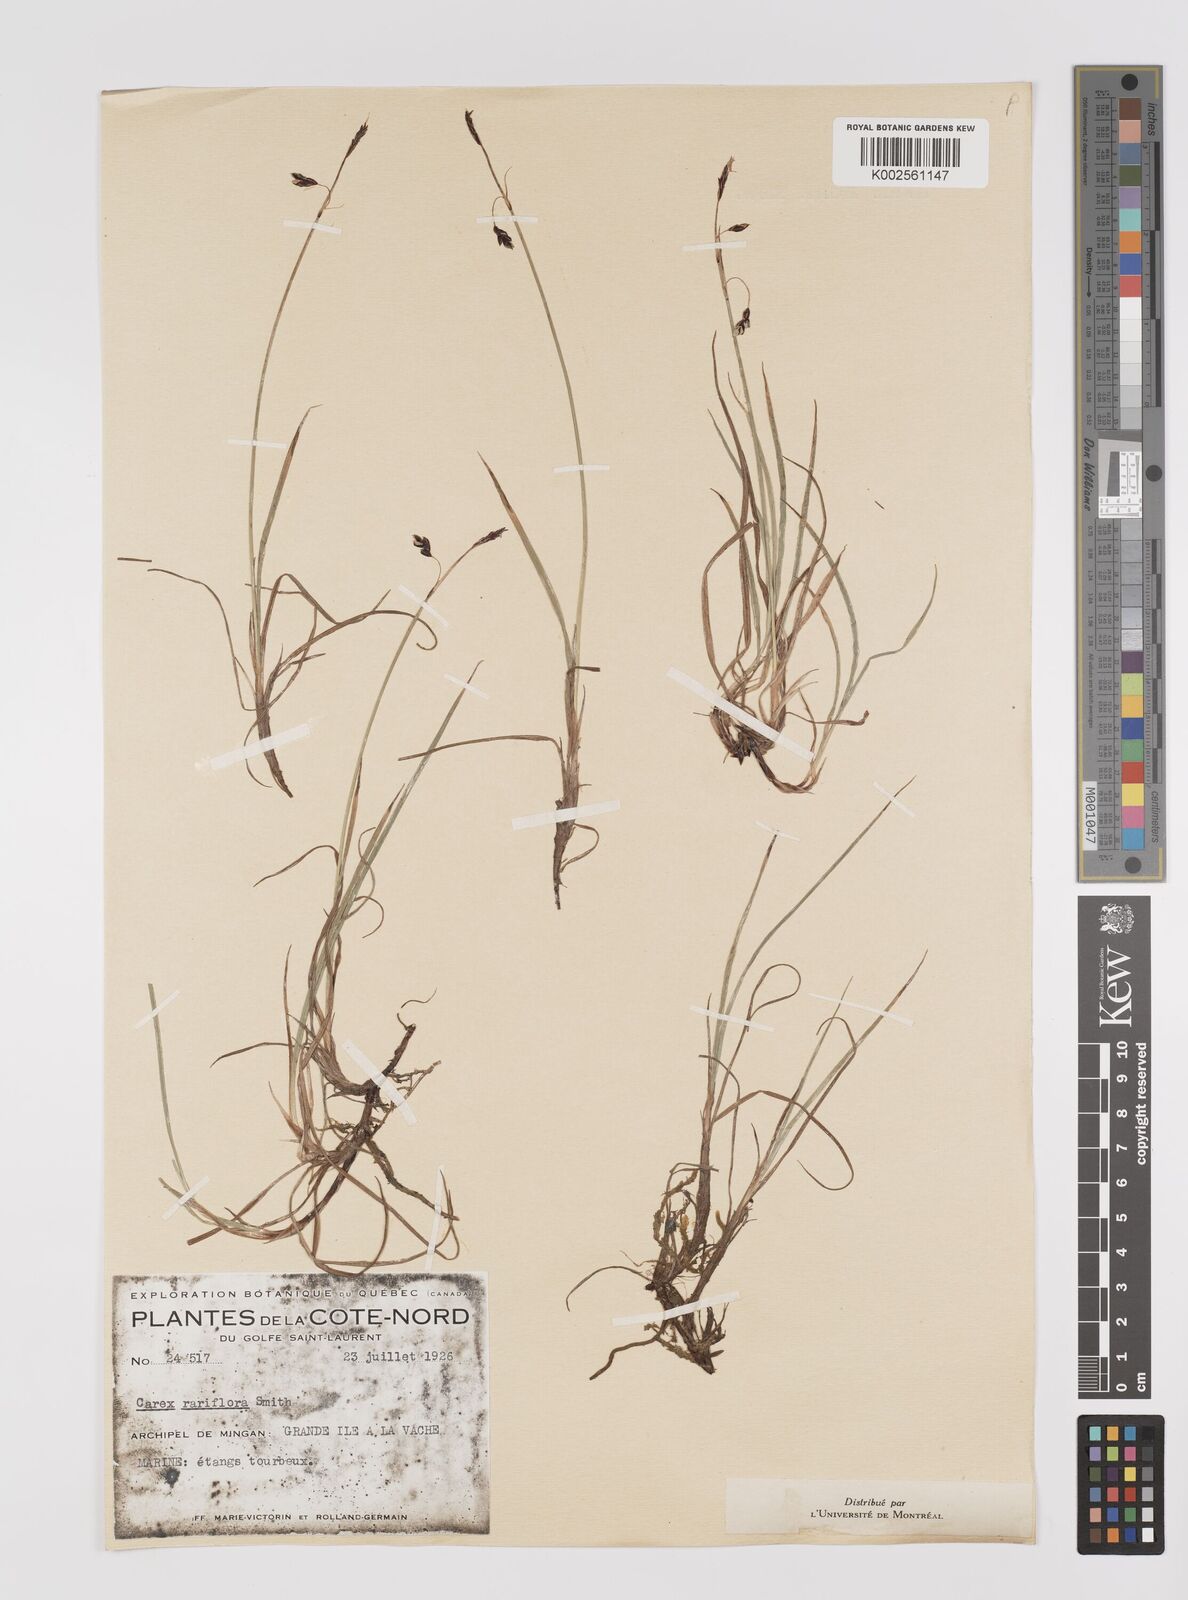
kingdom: Plantae
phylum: Tracheophyta
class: Liliopsida
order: Poales
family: Cyperaceae
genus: Carex
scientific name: Carex rariflora
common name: Loose-flowered alpine sedge
